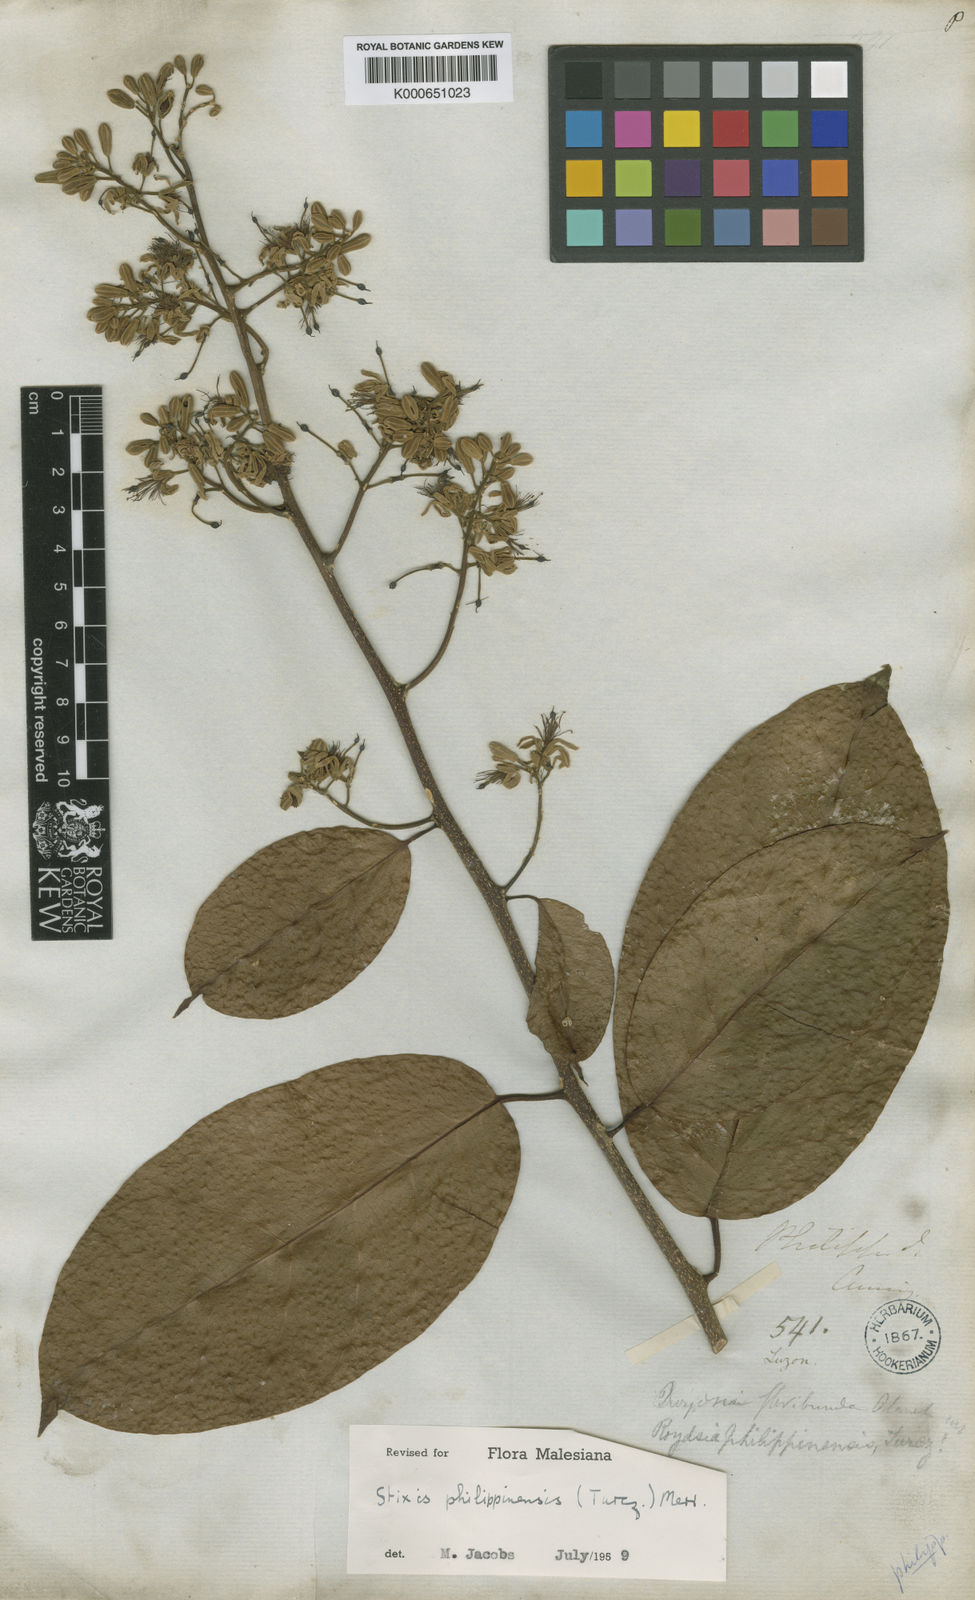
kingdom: Plantae
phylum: Tracheophyta
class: Magnoliopsida
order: Brassicales
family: Stixaceae
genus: Stixis
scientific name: Stixis philippinensis
